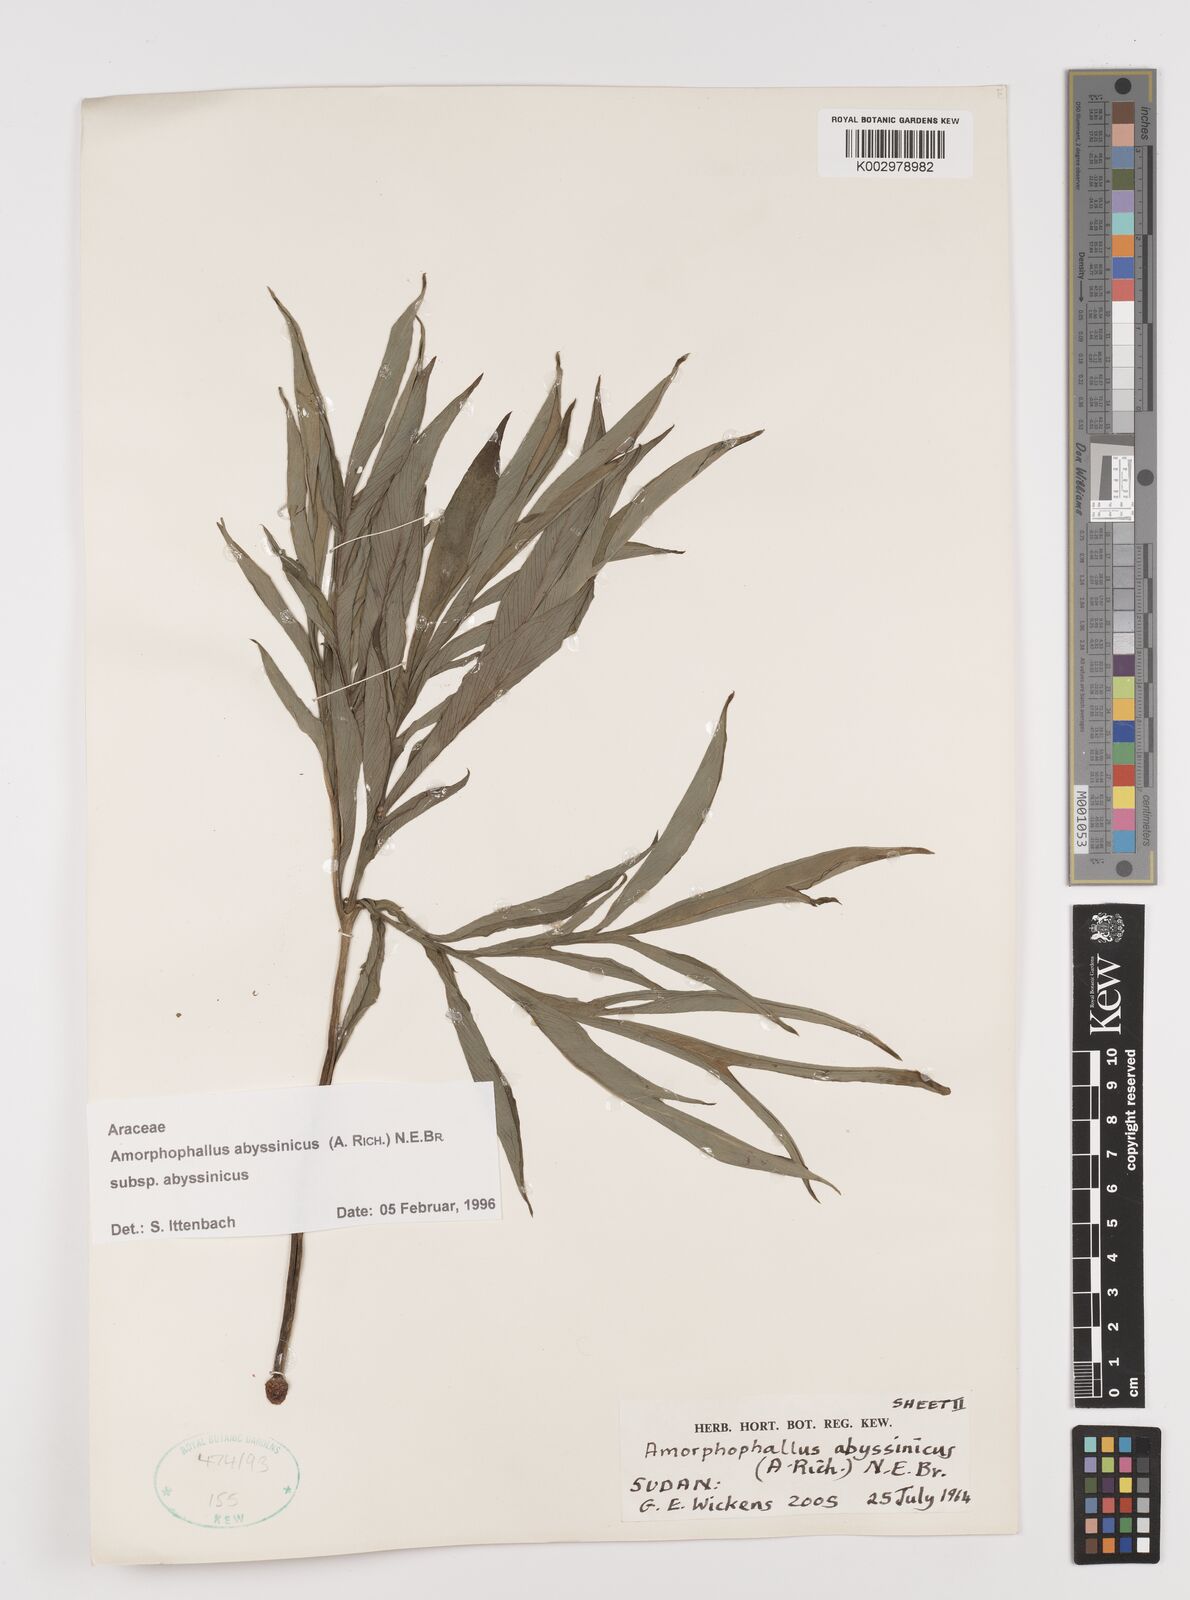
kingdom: Plantae
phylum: Tracheophyta
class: Liliopsida
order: Alismatales
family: Araceae
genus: Amorphophallus
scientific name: Amorphophallus abyssinicus
